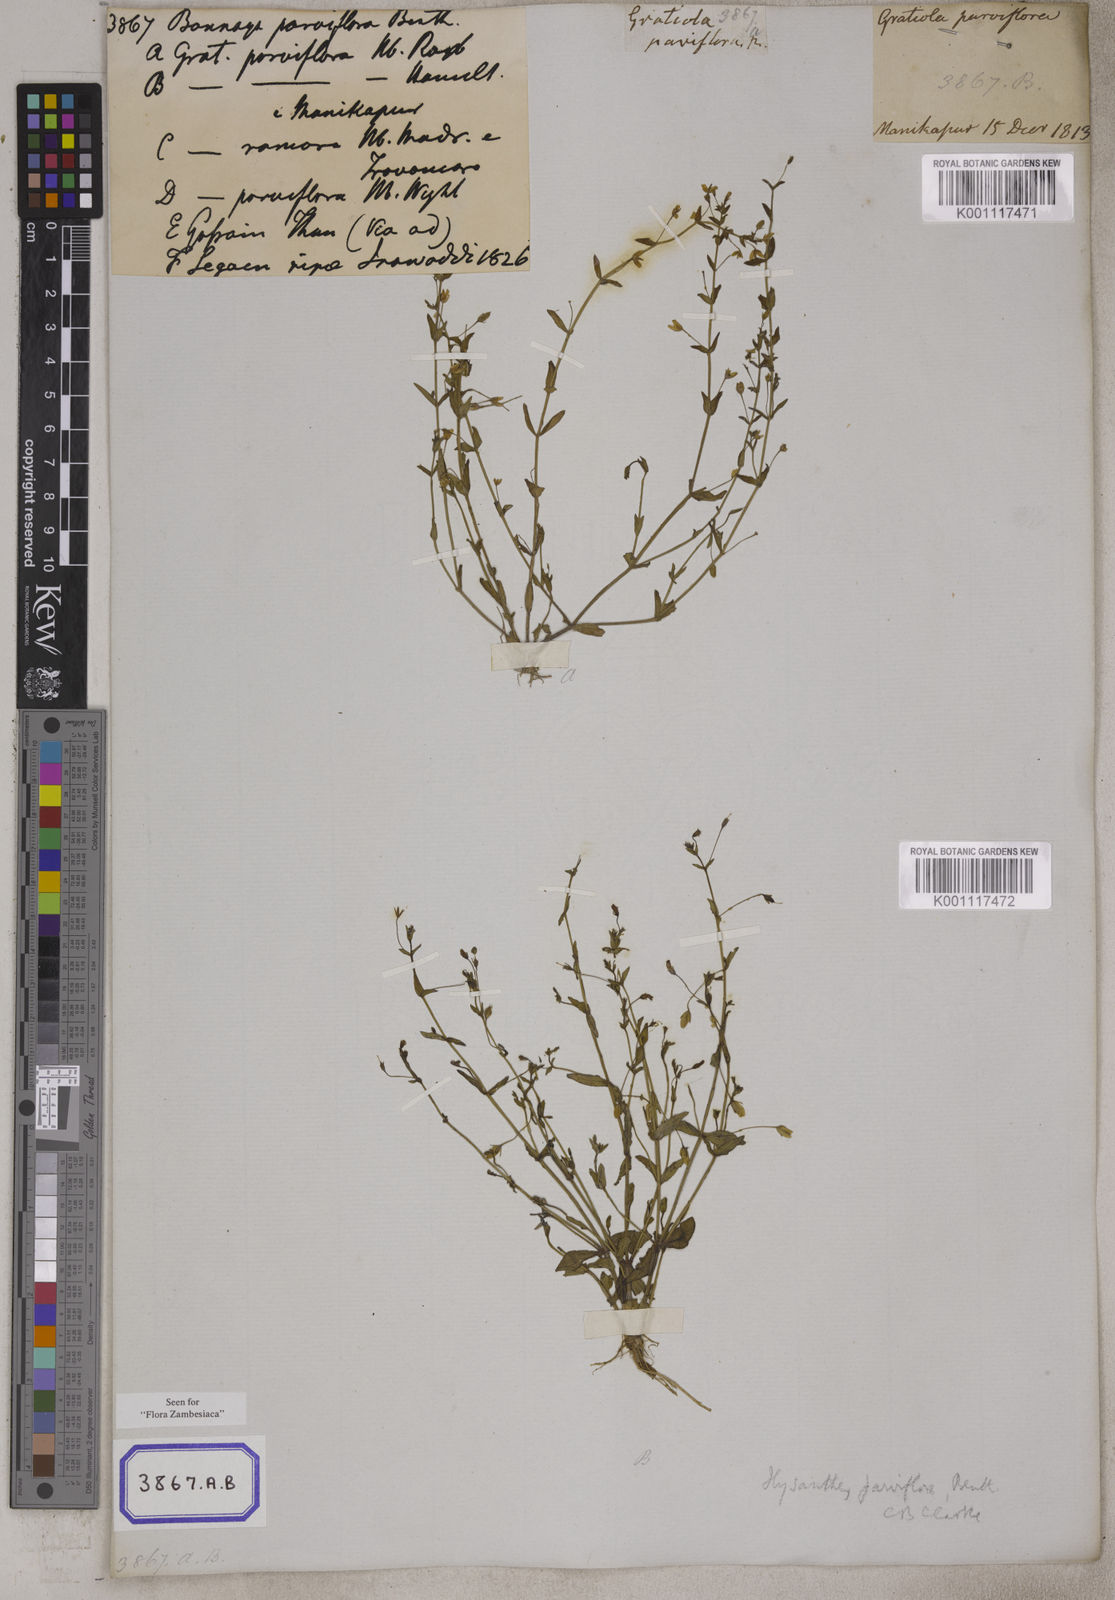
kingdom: Plantae
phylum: Tracheophyta
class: Magnoliopsida
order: Lamiales
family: Linderniaceae
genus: Lindernia
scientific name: Lindernia parviflora
